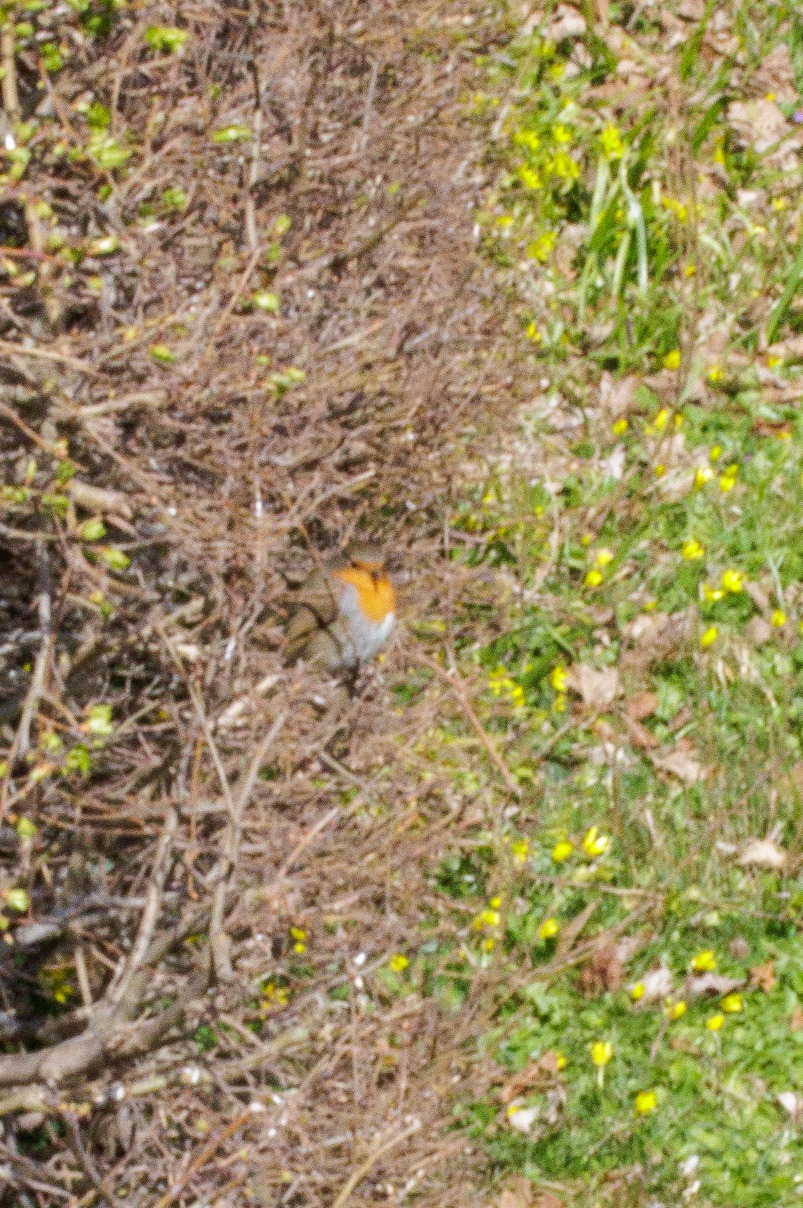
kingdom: Animalia
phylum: Chordata
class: Aves
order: Passeriformes
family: Muscicapidae
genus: Erithacus
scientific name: Erithacus rubecula
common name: Rødhals/rødkælk
